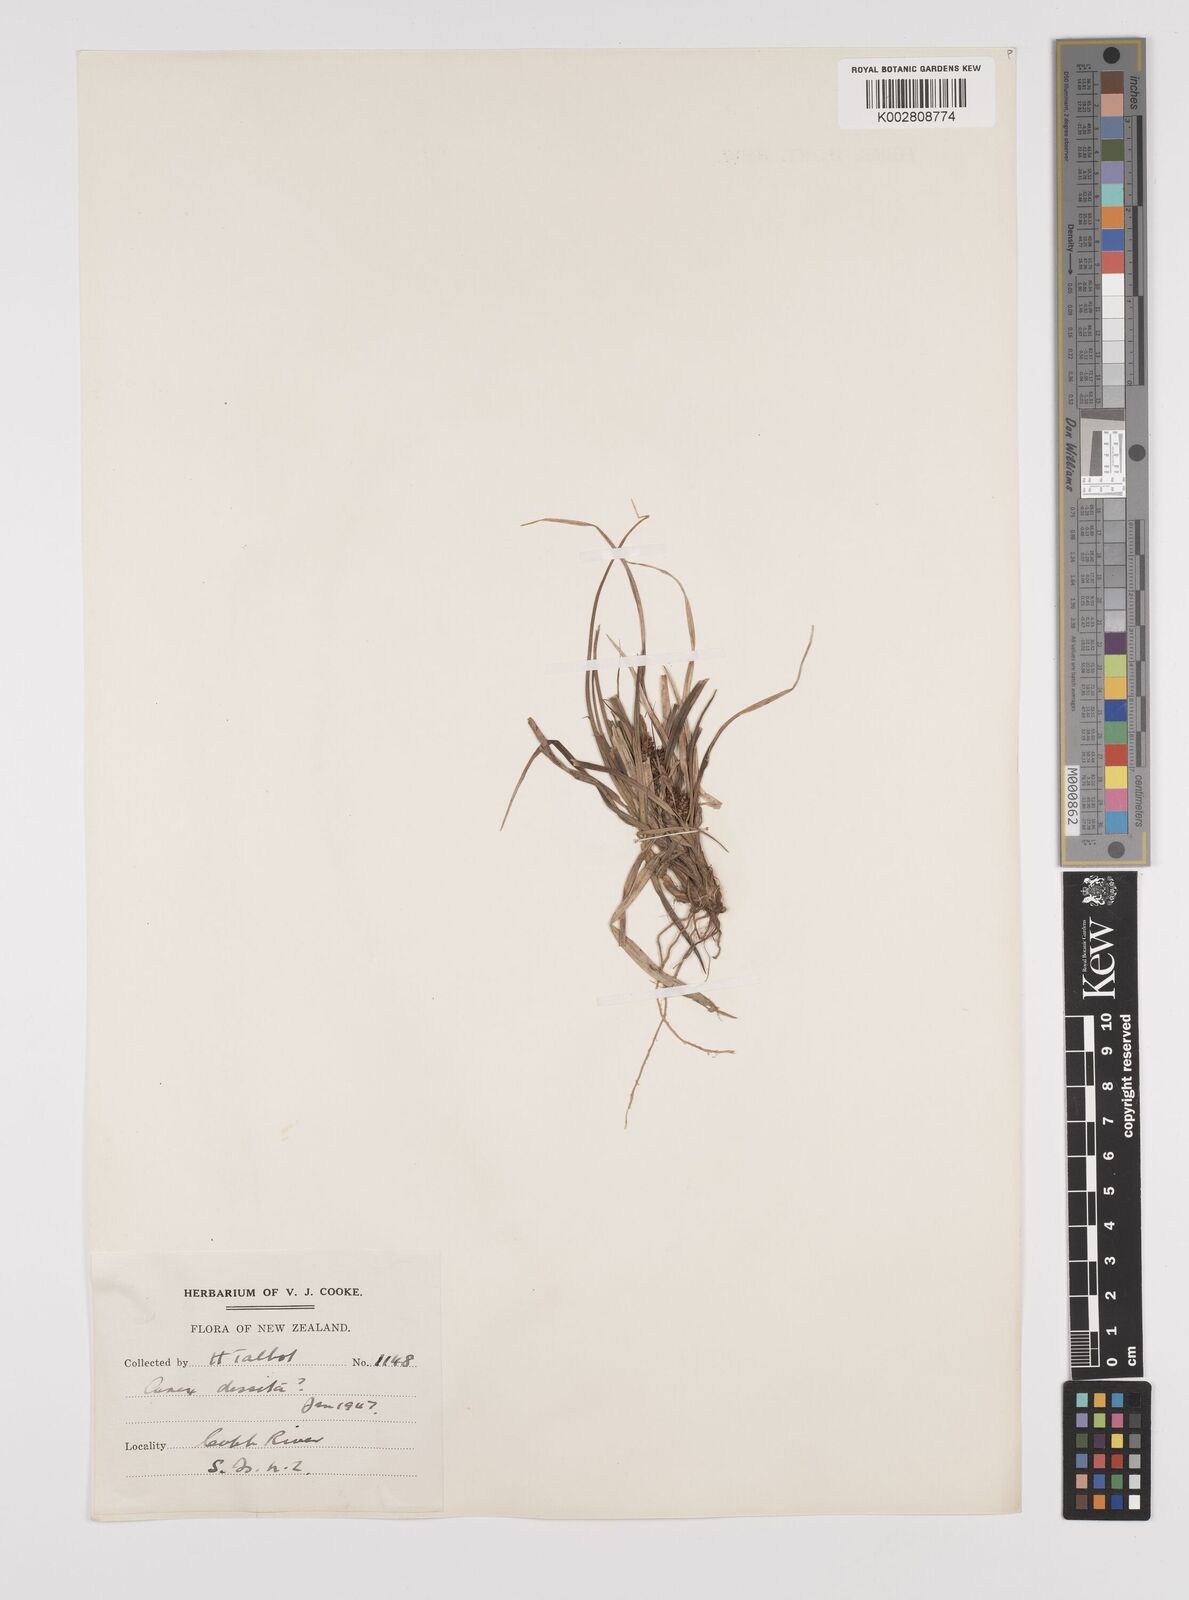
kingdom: Plantae
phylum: Tracheophyta
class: Liliopsida
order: Poales
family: Cyperaceae
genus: Carex
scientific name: Carex dissita
